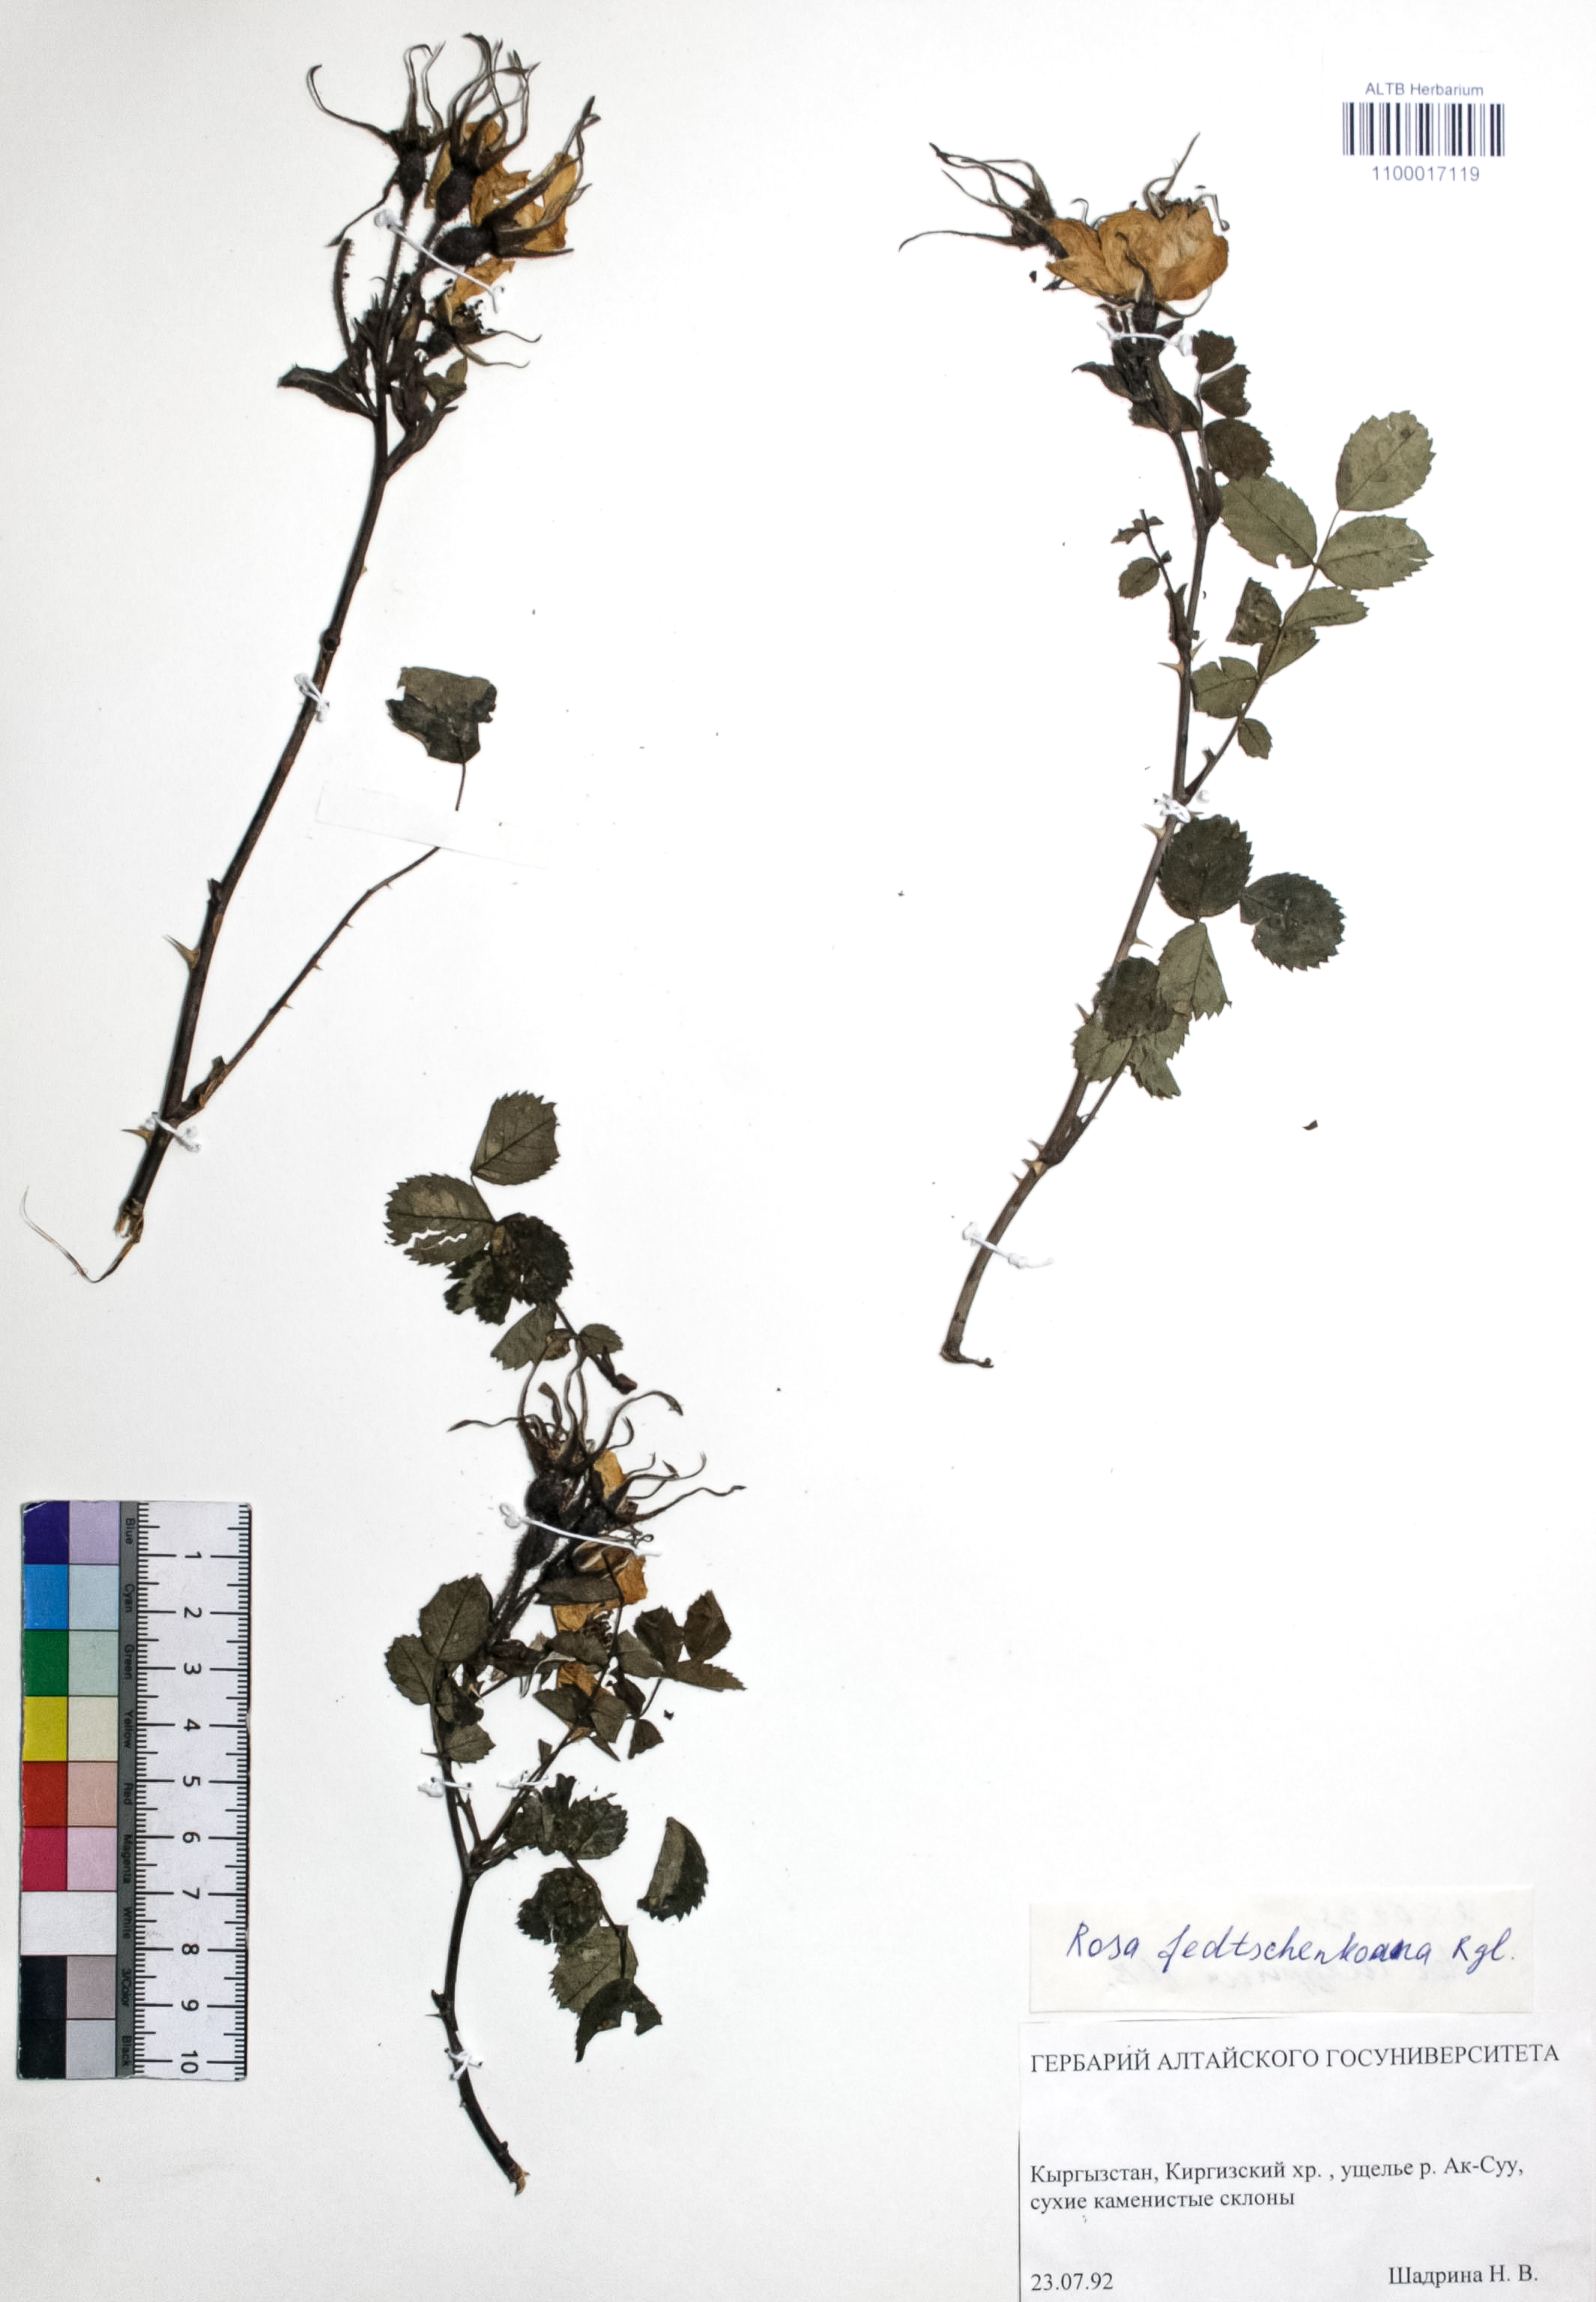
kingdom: Plantae
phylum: Tracheophyta
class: Magnoliopsida
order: Rosales
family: Rosaceae
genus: Rosa
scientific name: Rosa webbiana
